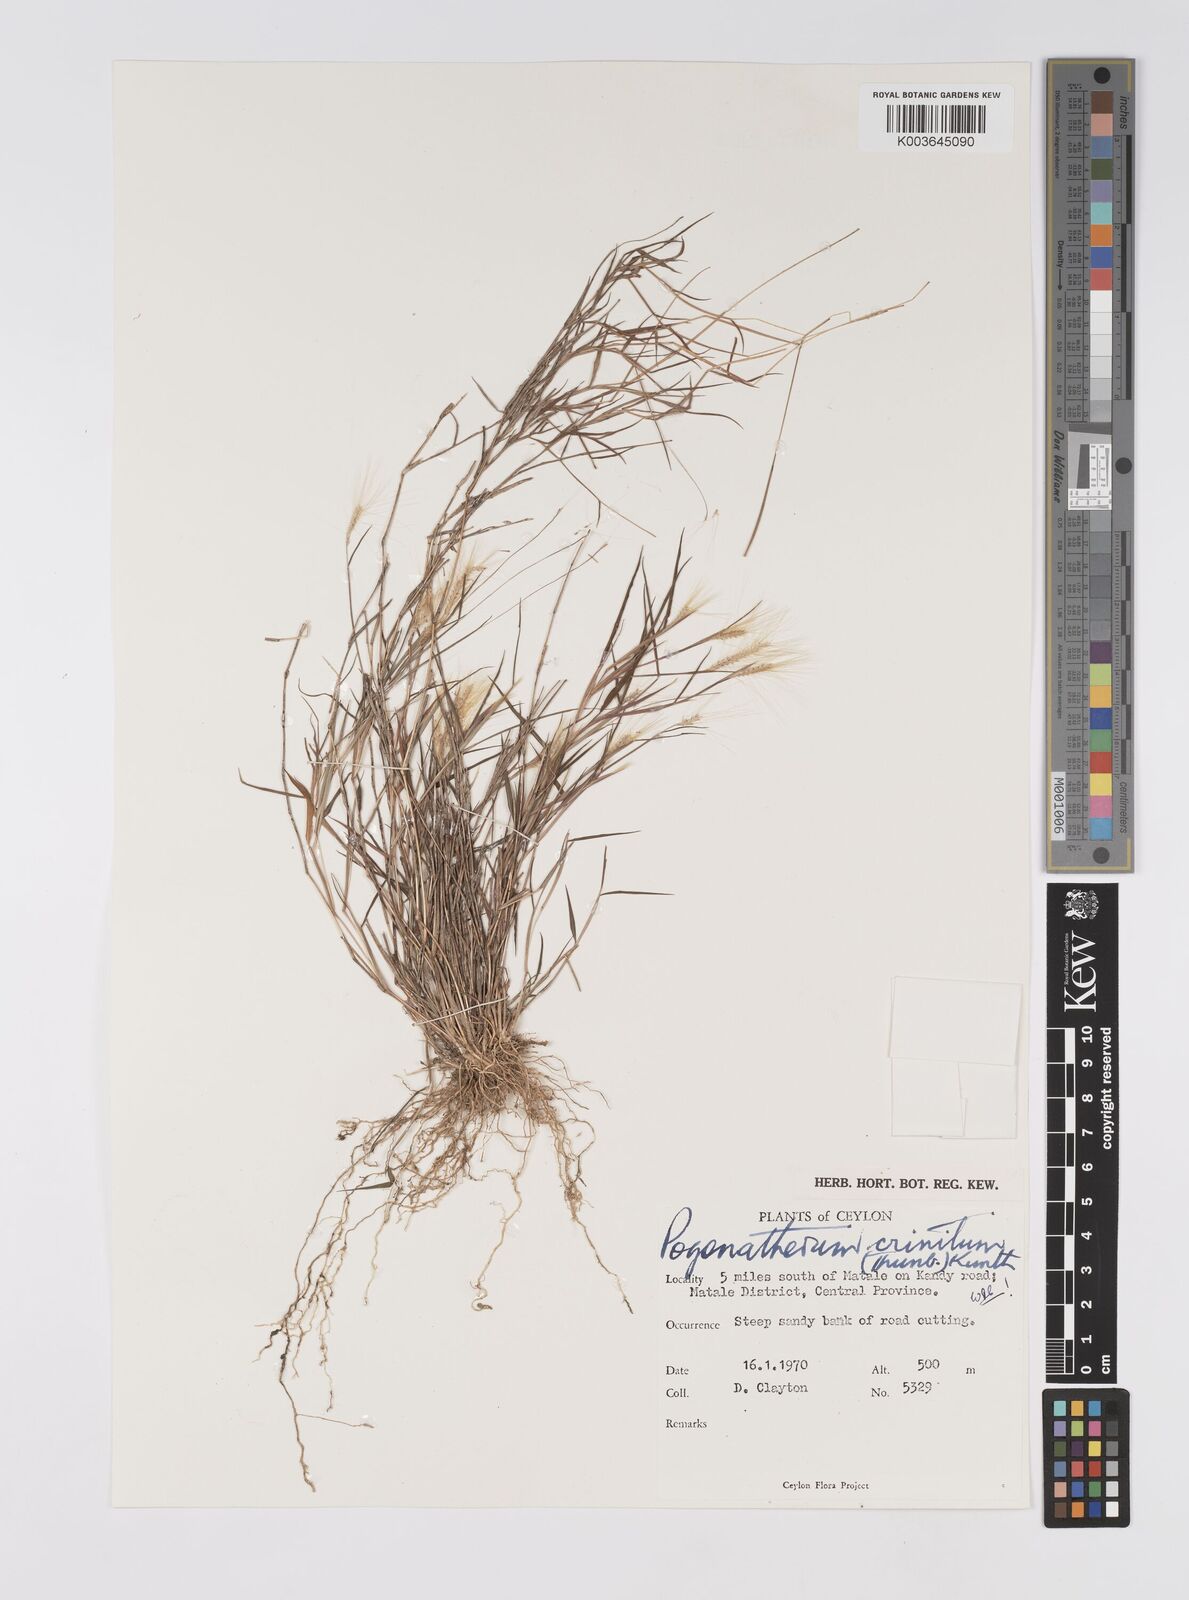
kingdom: Plantae
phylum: Tracheophyta
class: Liliopsida
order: Poales
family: Poaceae
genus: Pogonatherum
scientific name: Pogonatherum crinitum
